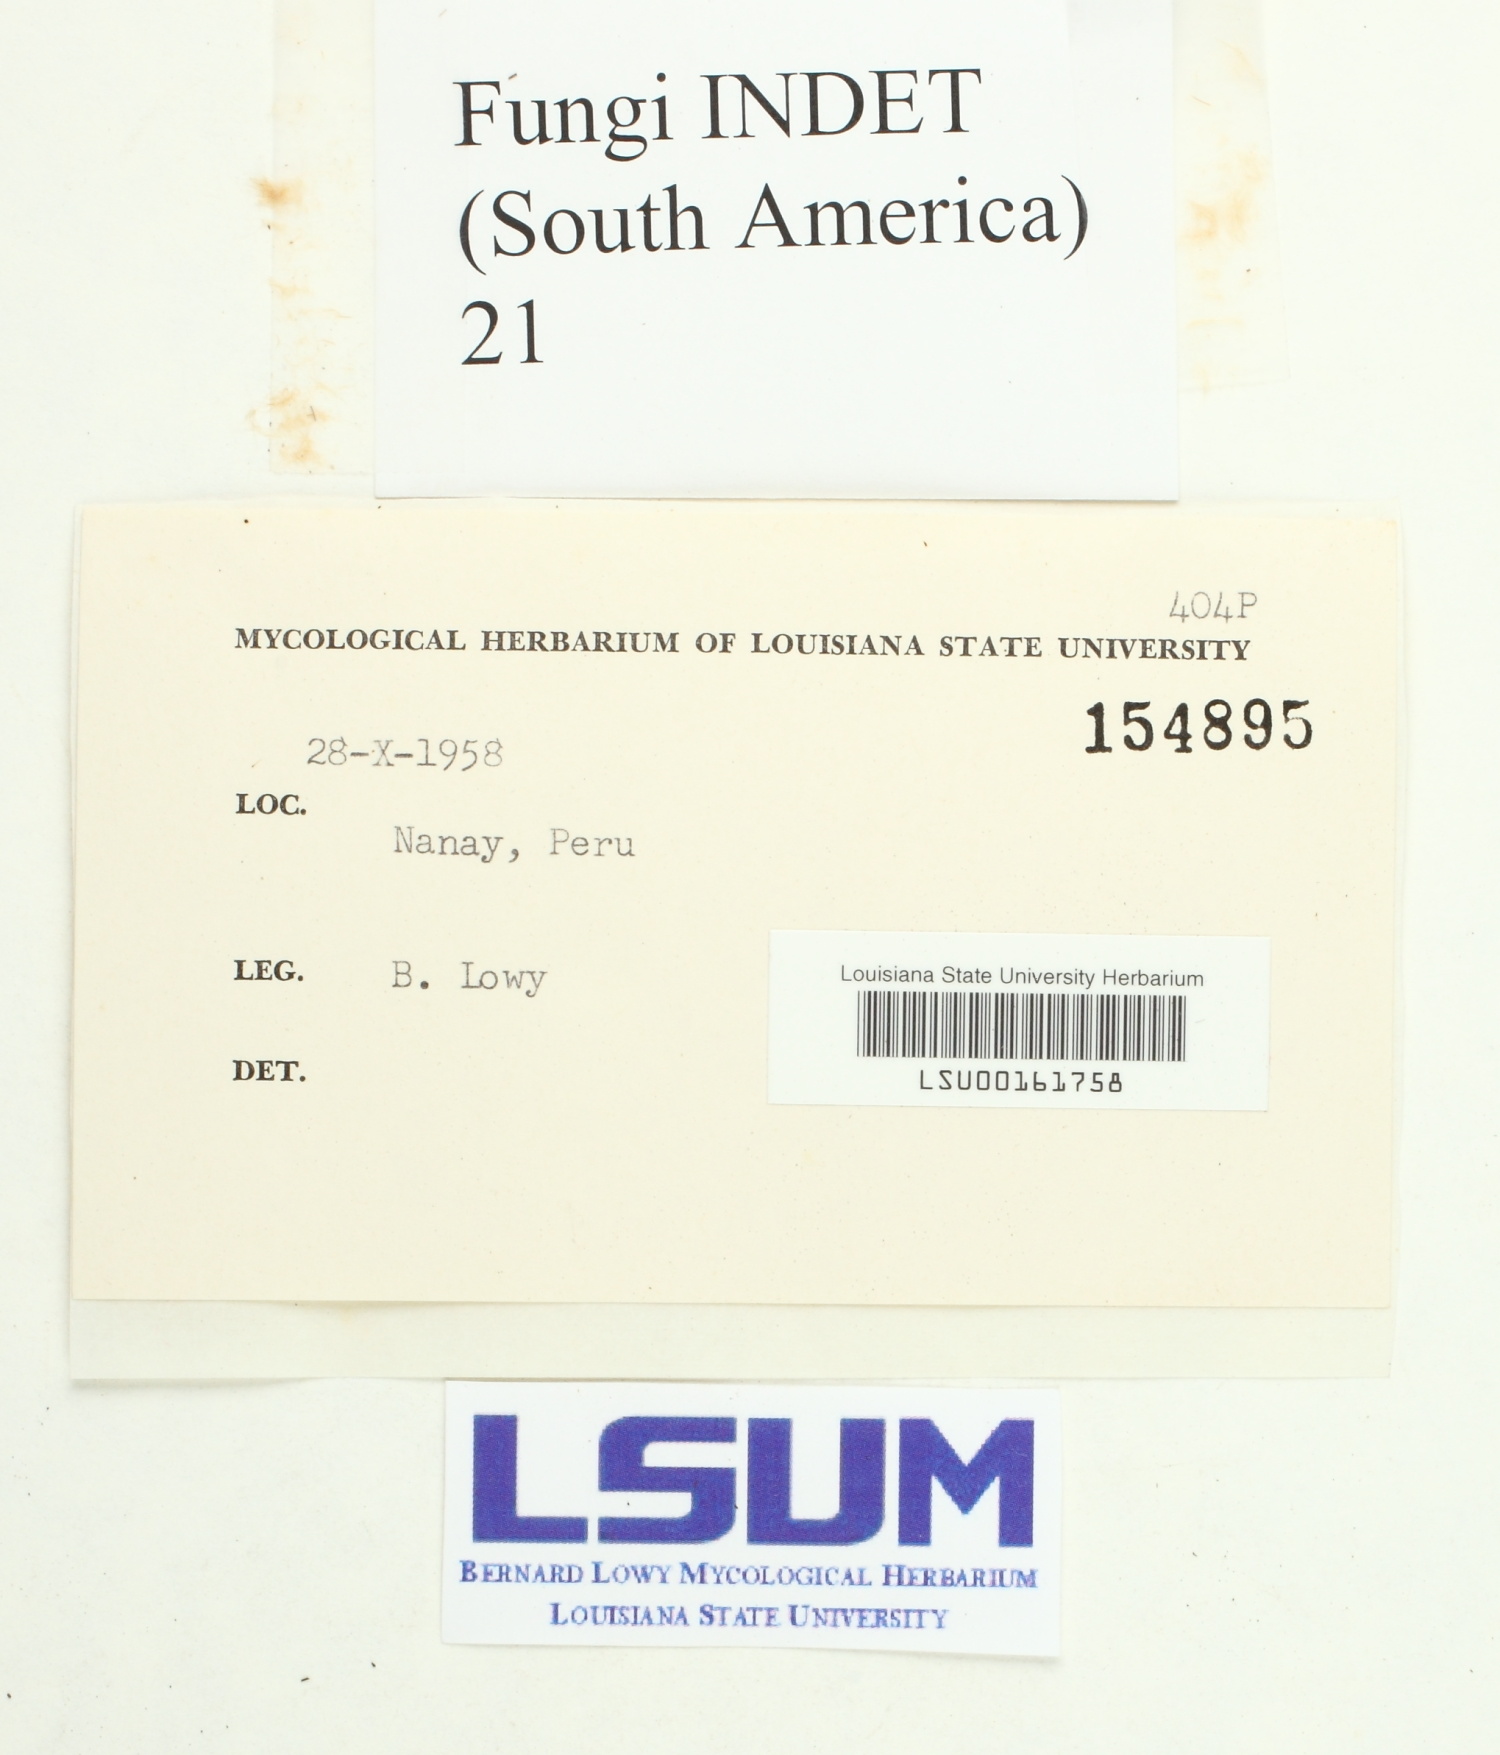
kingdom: Fungi
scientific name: Fungi
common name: Fungi
